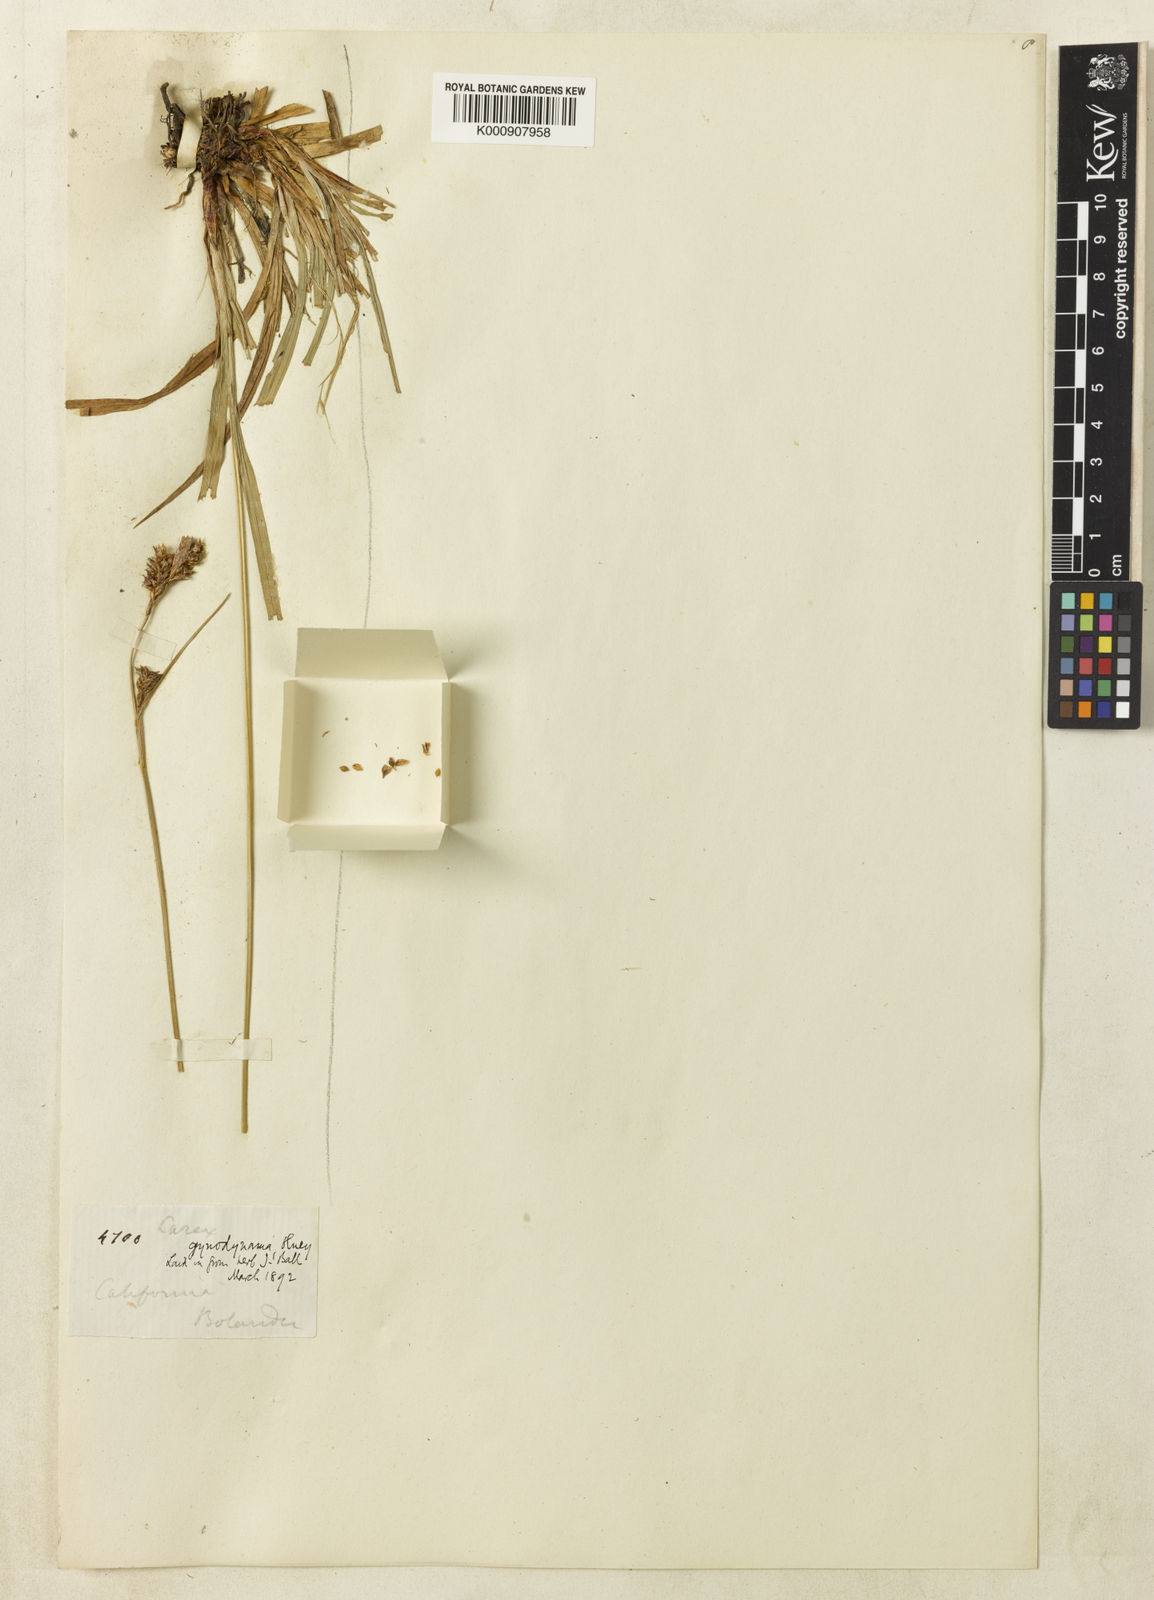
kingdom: Plantae
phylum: Tracheophyta
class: Liliopsida
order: Poales
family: Cyperaceae
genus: Carex
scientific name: Carex gynodynama
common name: Olney's hairy sedge
